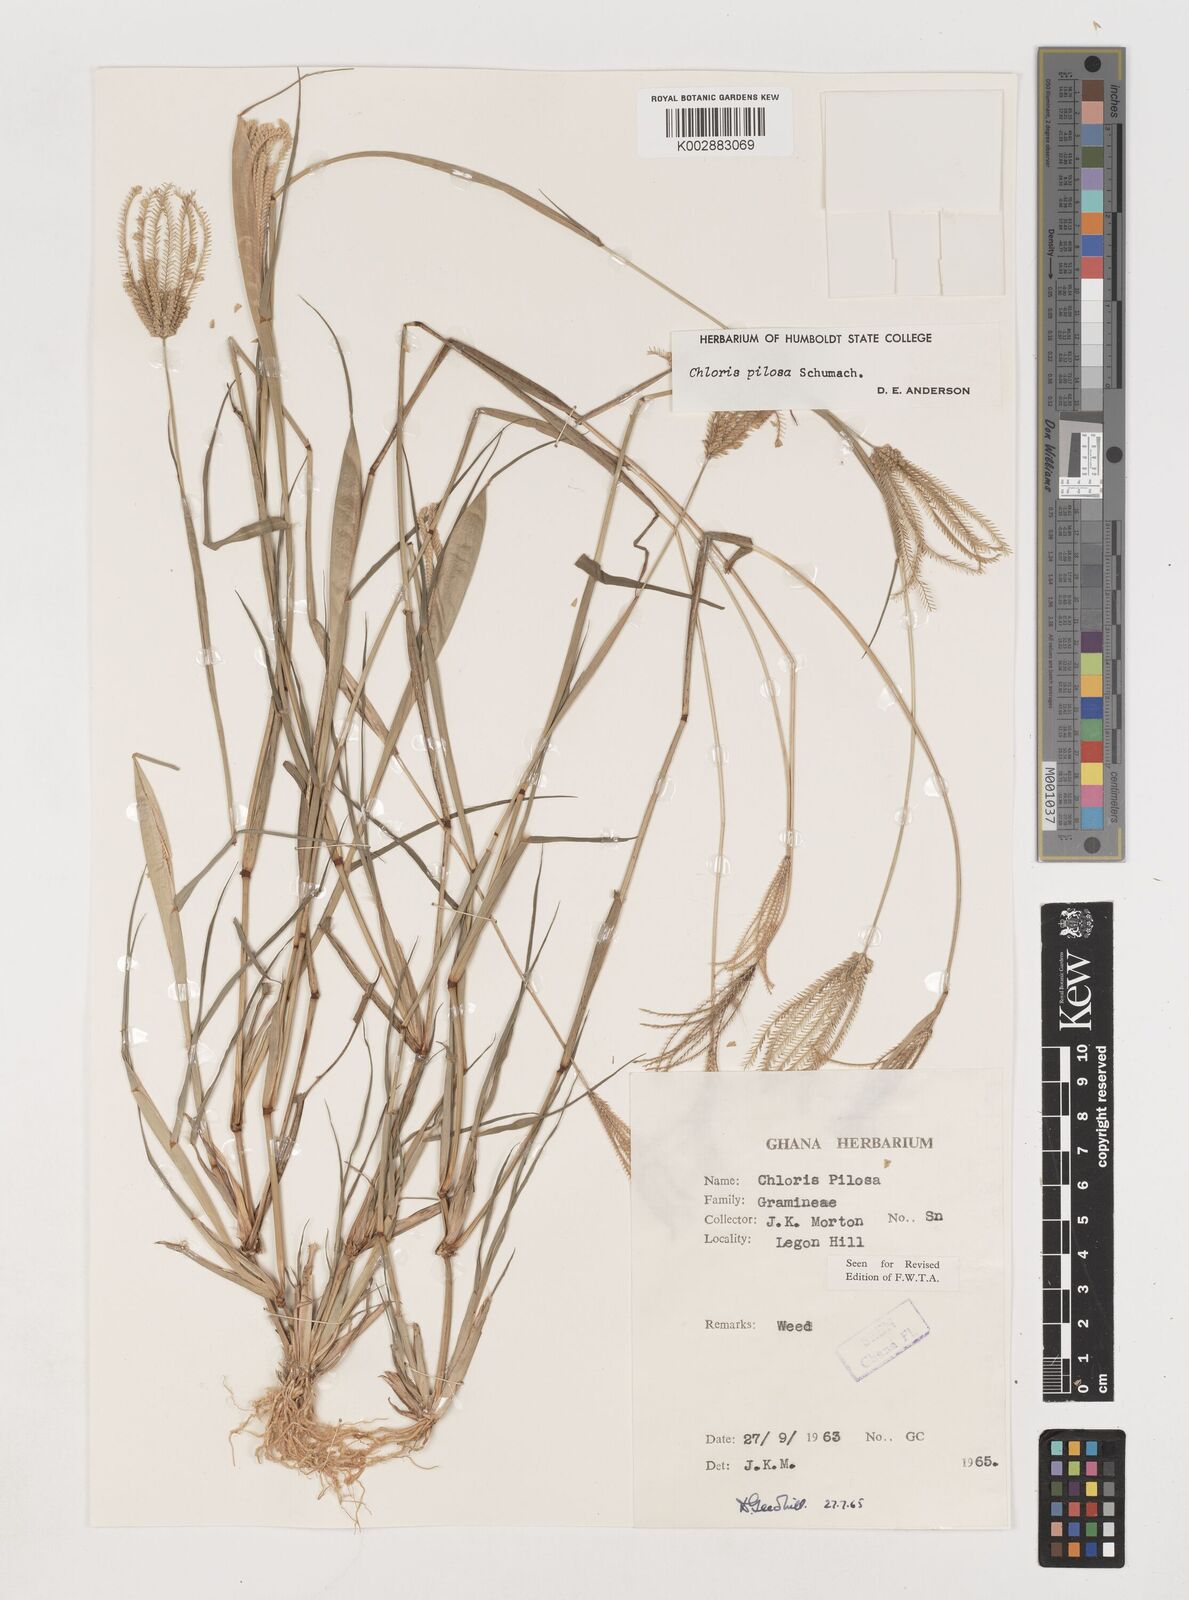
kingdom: Plantae
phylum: Tracheophyta
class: Liliopsida
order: Poales
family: Poaceae
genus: Chloris
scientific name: Chloris pilosa
